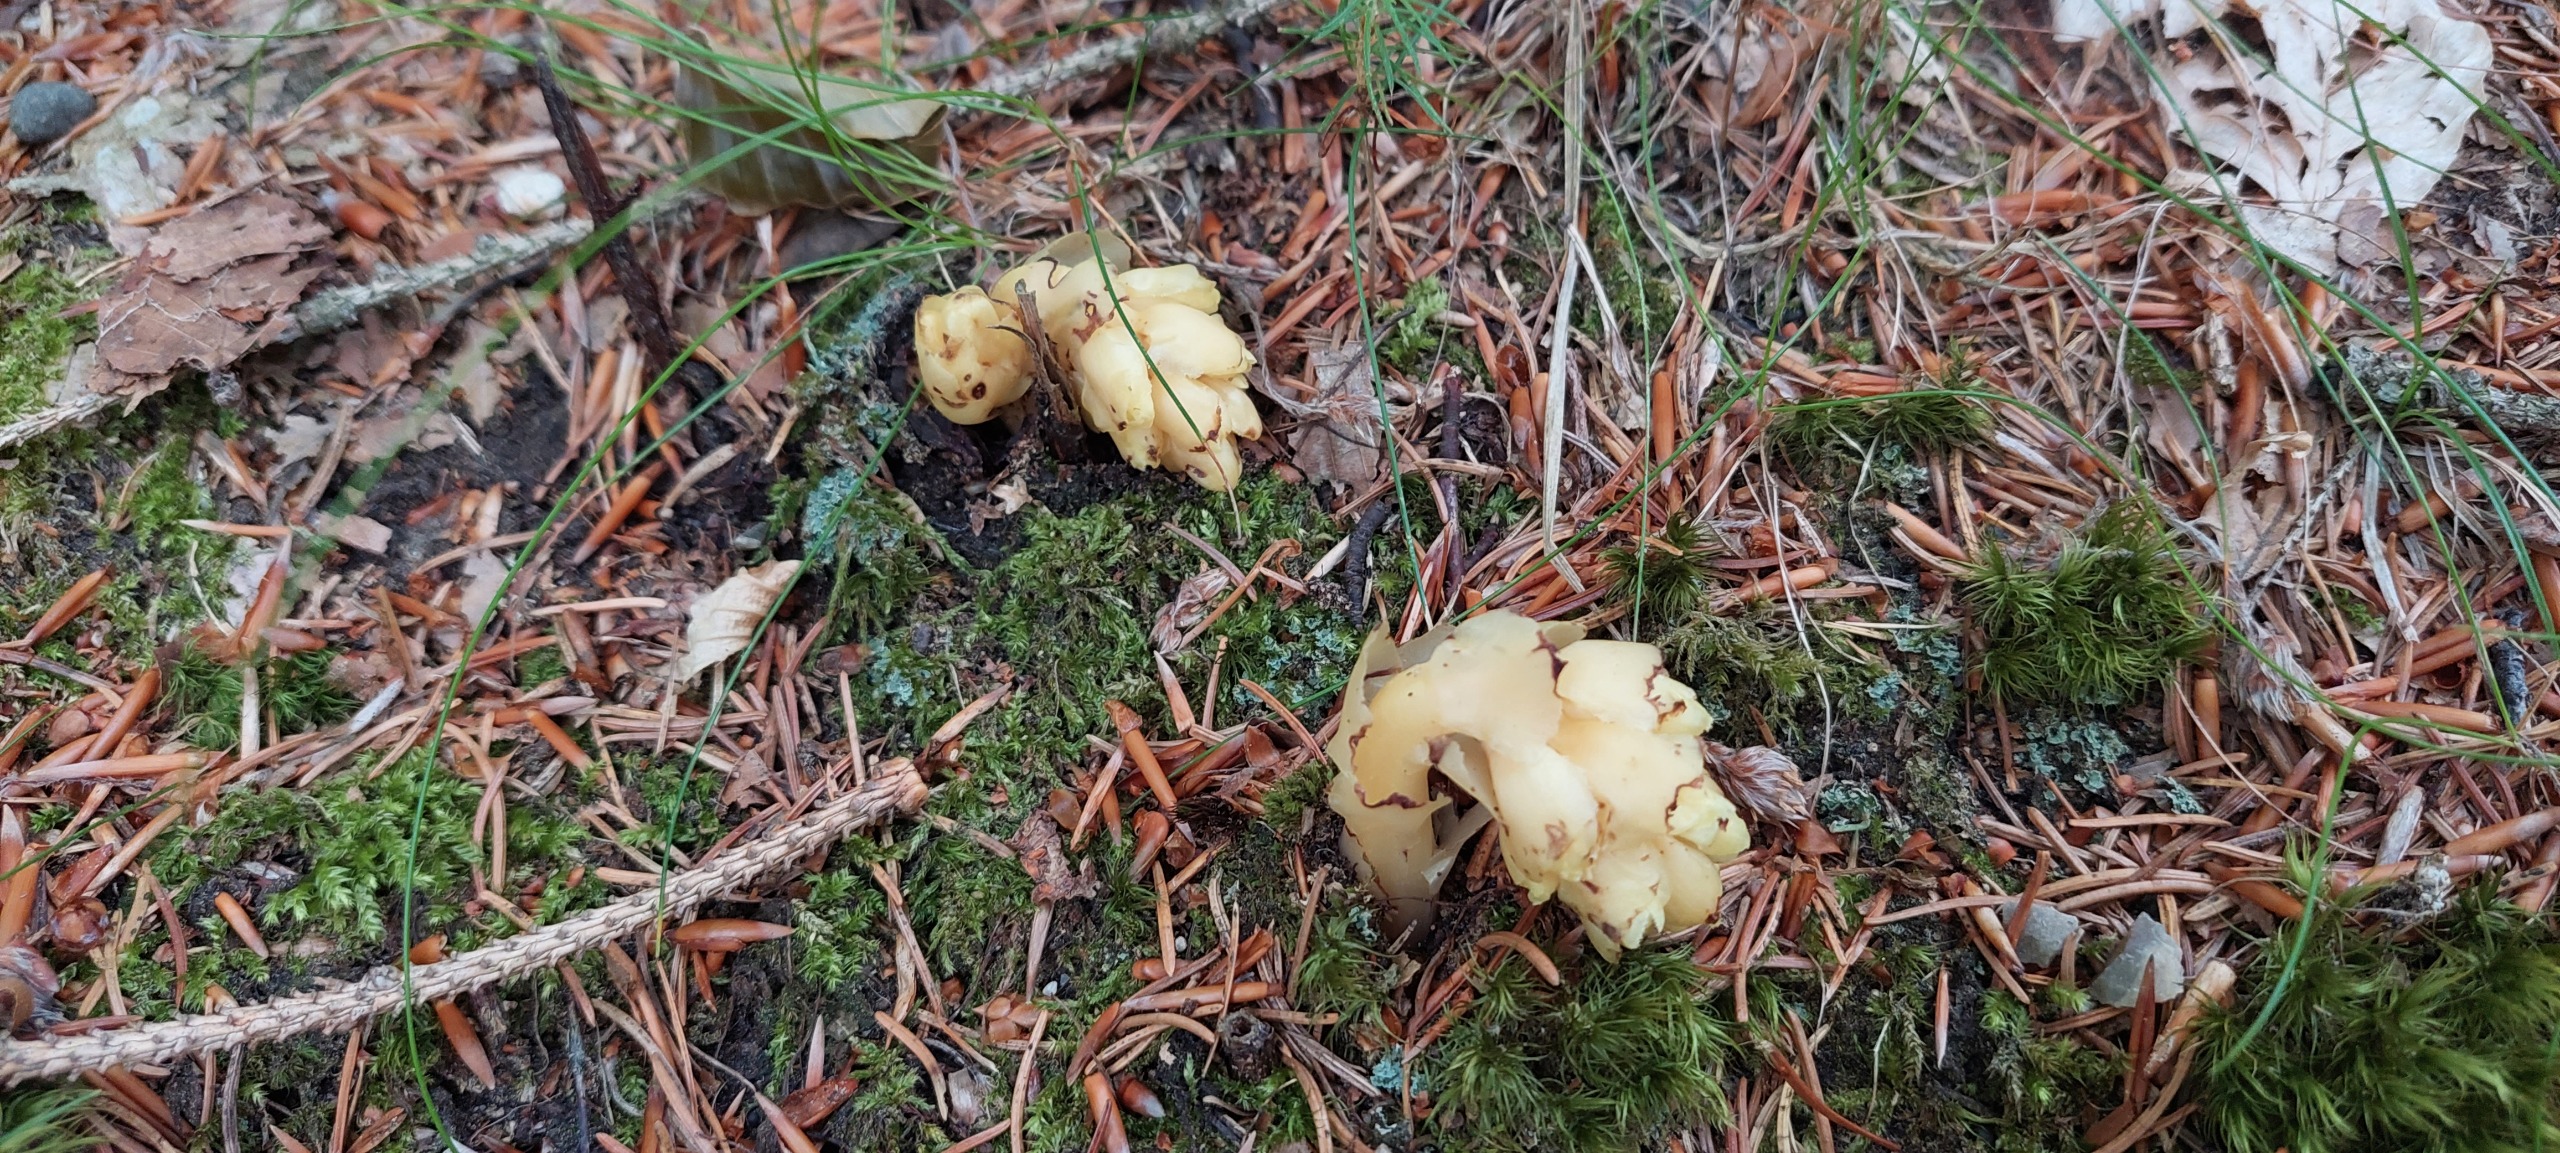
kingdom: Plantae
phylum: Tracheophyta
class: Magnoliopsida
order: Ericales
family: Ericaceae
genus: Hypopitys
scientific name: Hypopitys monotropa
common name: Snylterod
